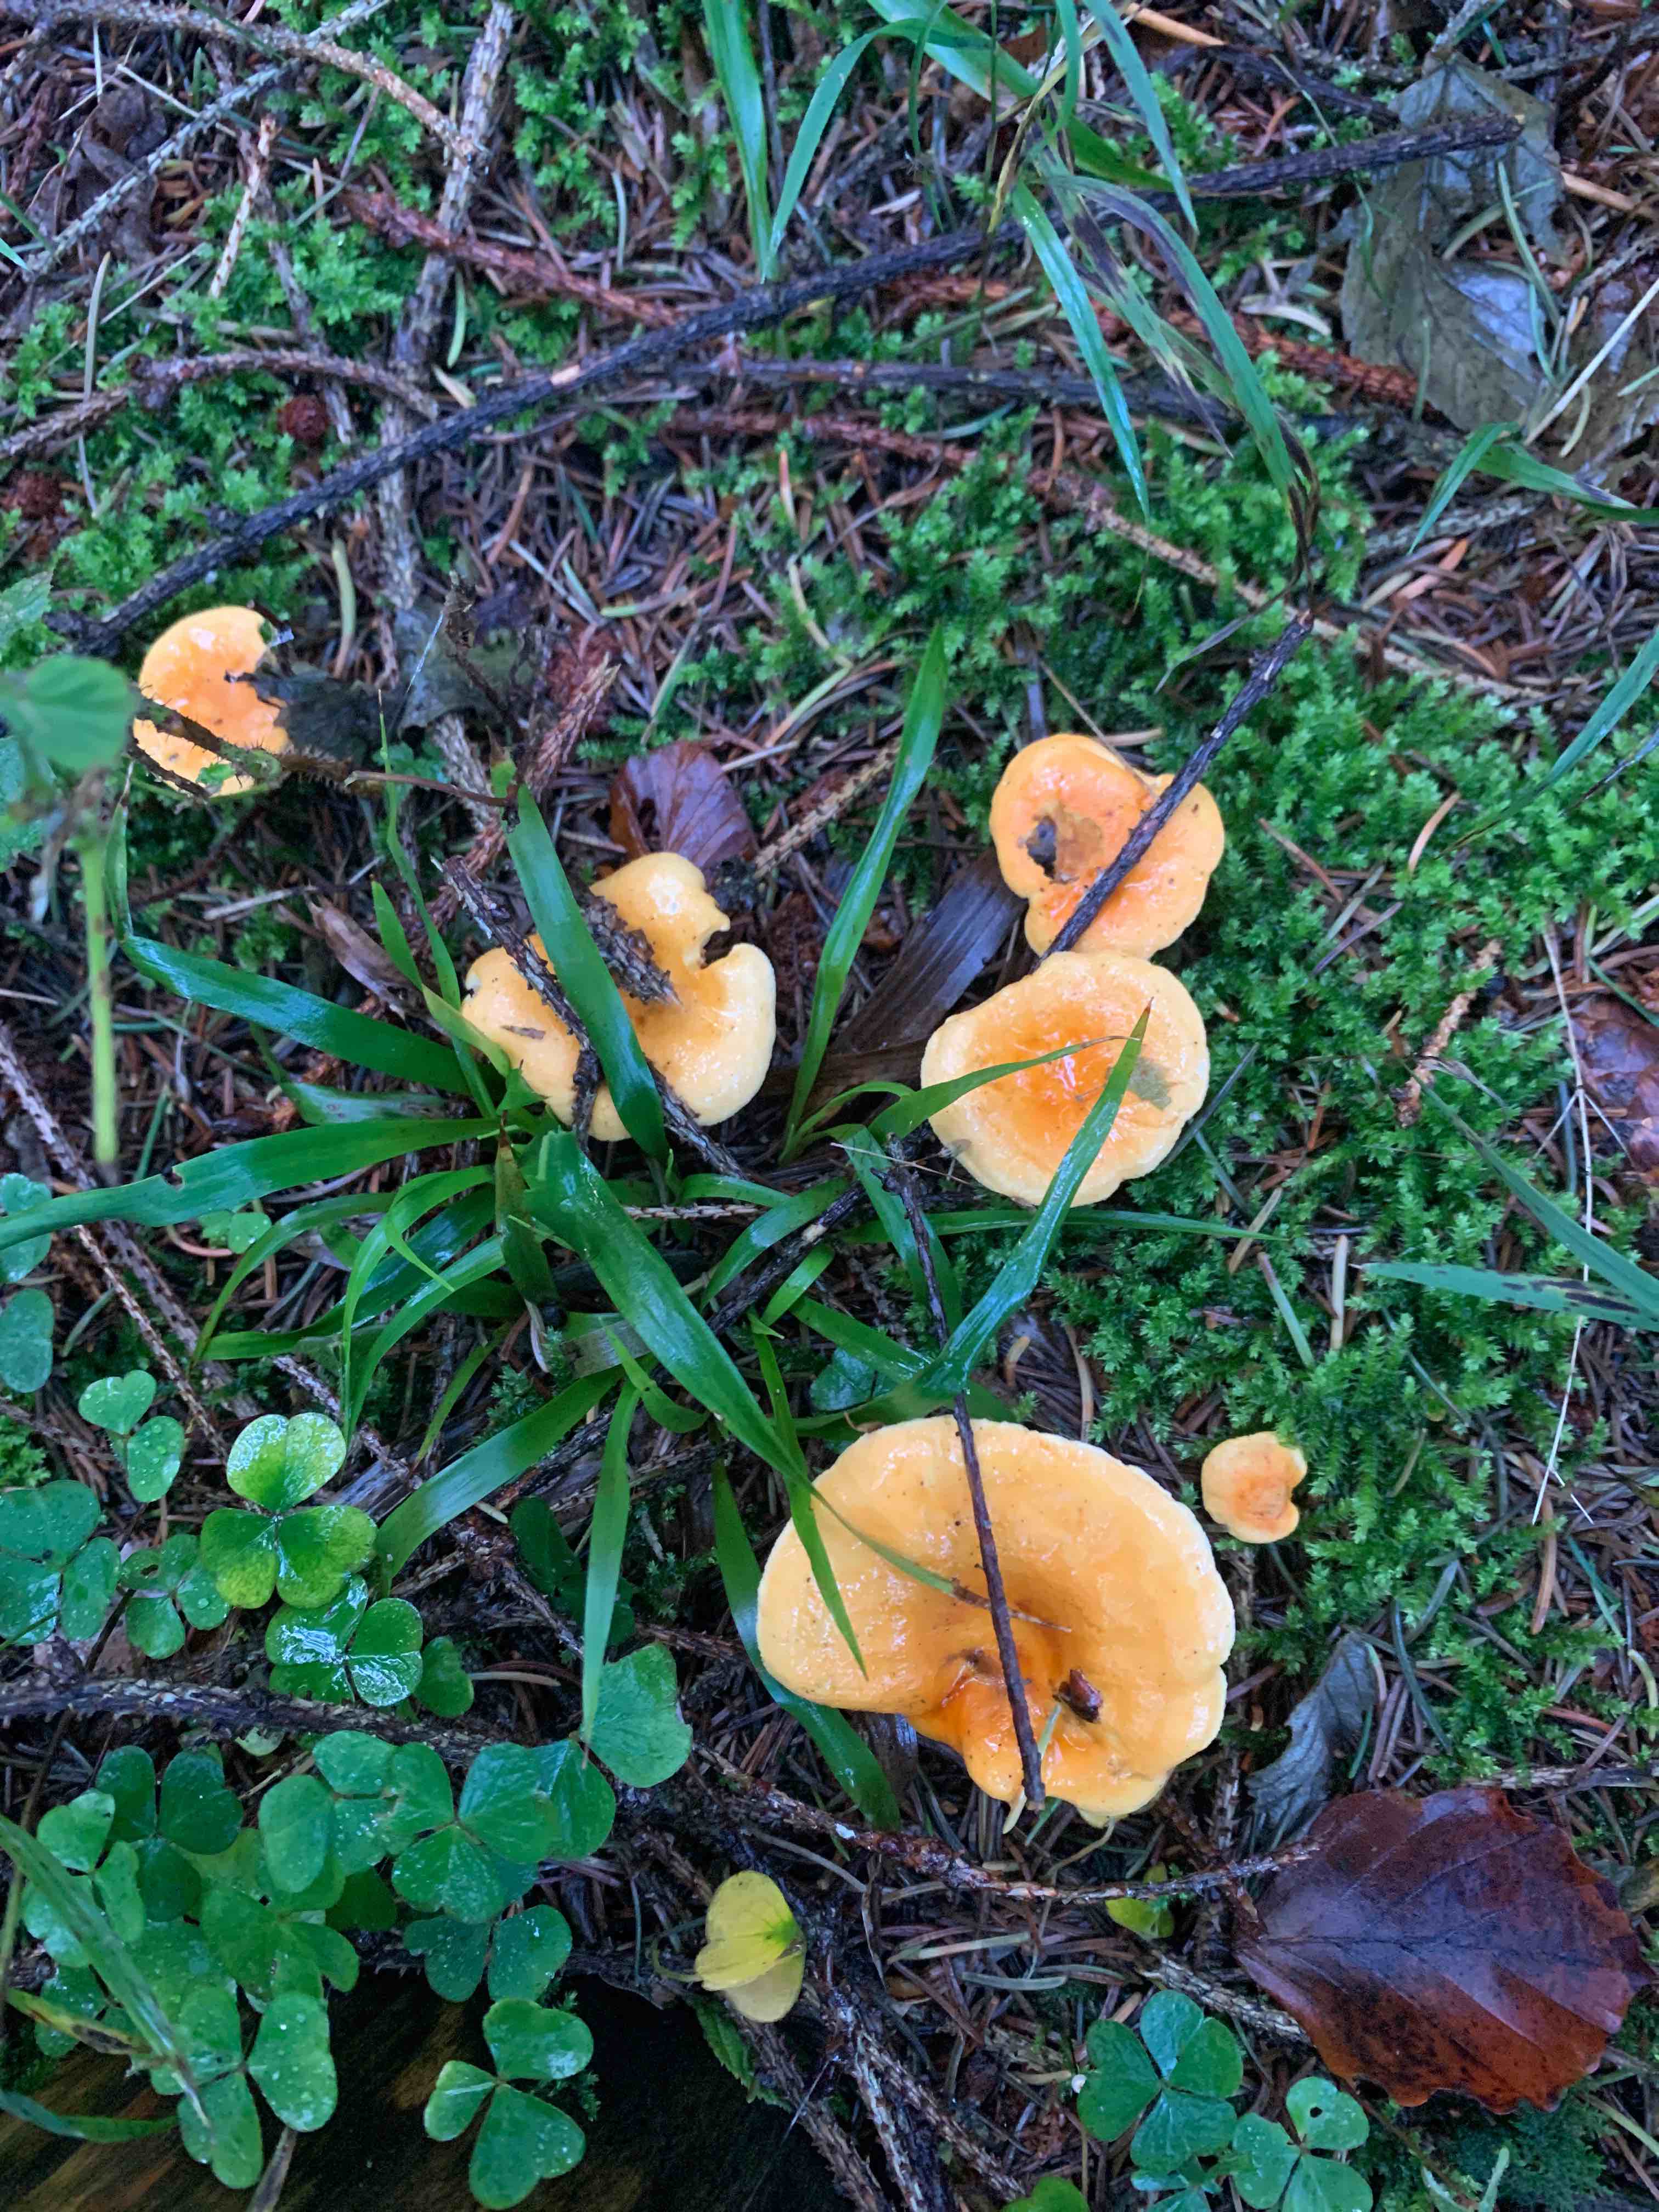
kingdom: Fungi
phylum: Basidiomycota
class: Agaricomycetes
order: Boletales
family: Hygrophoropsidaceae
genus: Hygrophoropsis
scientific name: Hygrophoropsis aurantiaca
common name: almindelig orangekantarel
